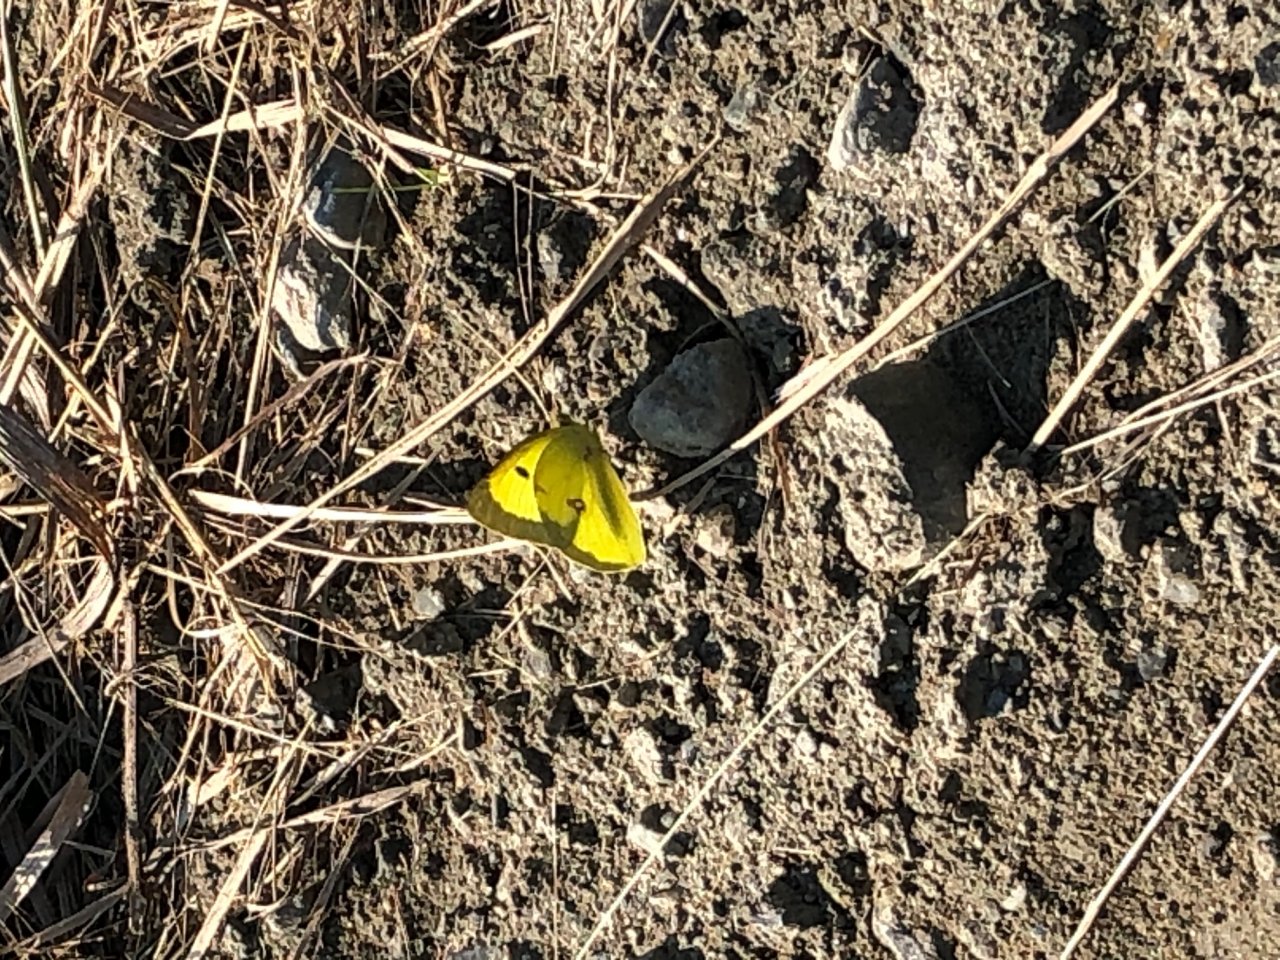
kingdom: Animalia
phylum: Arthropoda
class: Insecta
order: Lepidoptera
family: Pieridae
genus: Colias
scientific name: Colias philodice
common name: Clouded Sulphur
